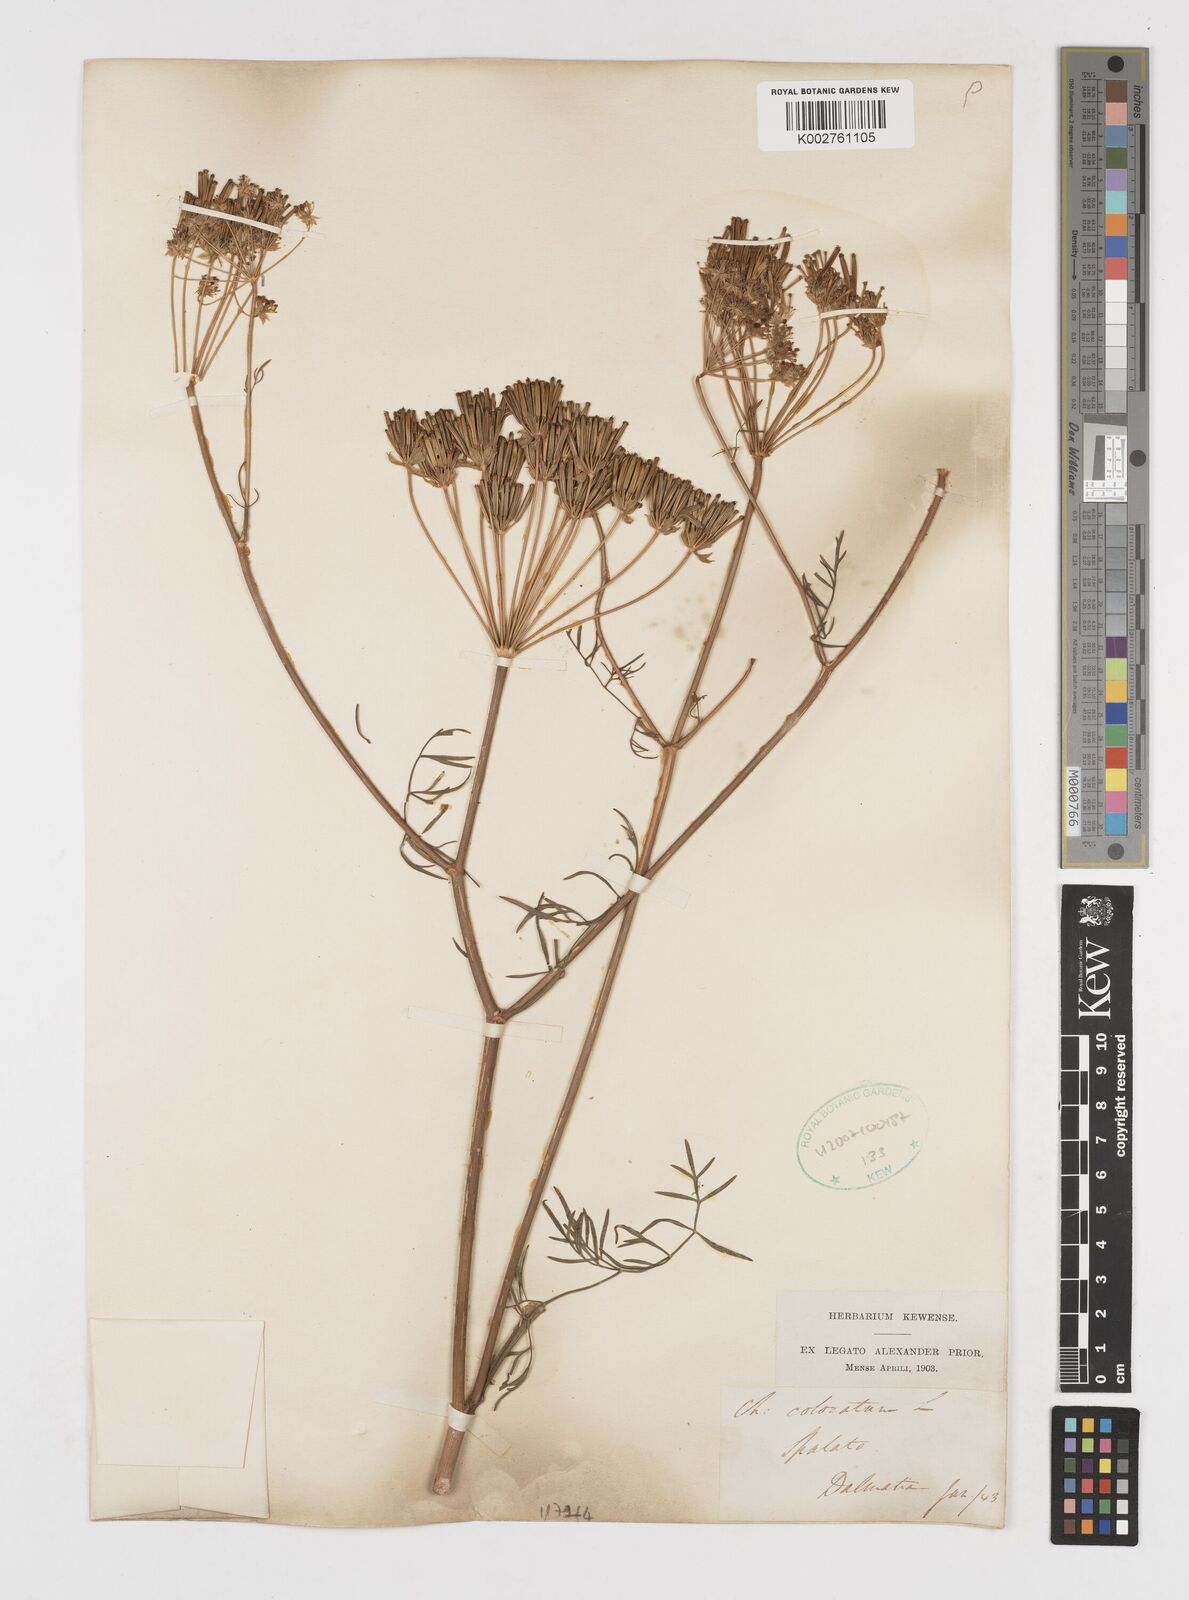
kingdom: Plantae
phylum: Tracheophyta
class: Magnoliopsida
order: Apiales
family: Apiaceae
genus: Chaerophyllum
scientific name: Chaerophyllum coloratum
